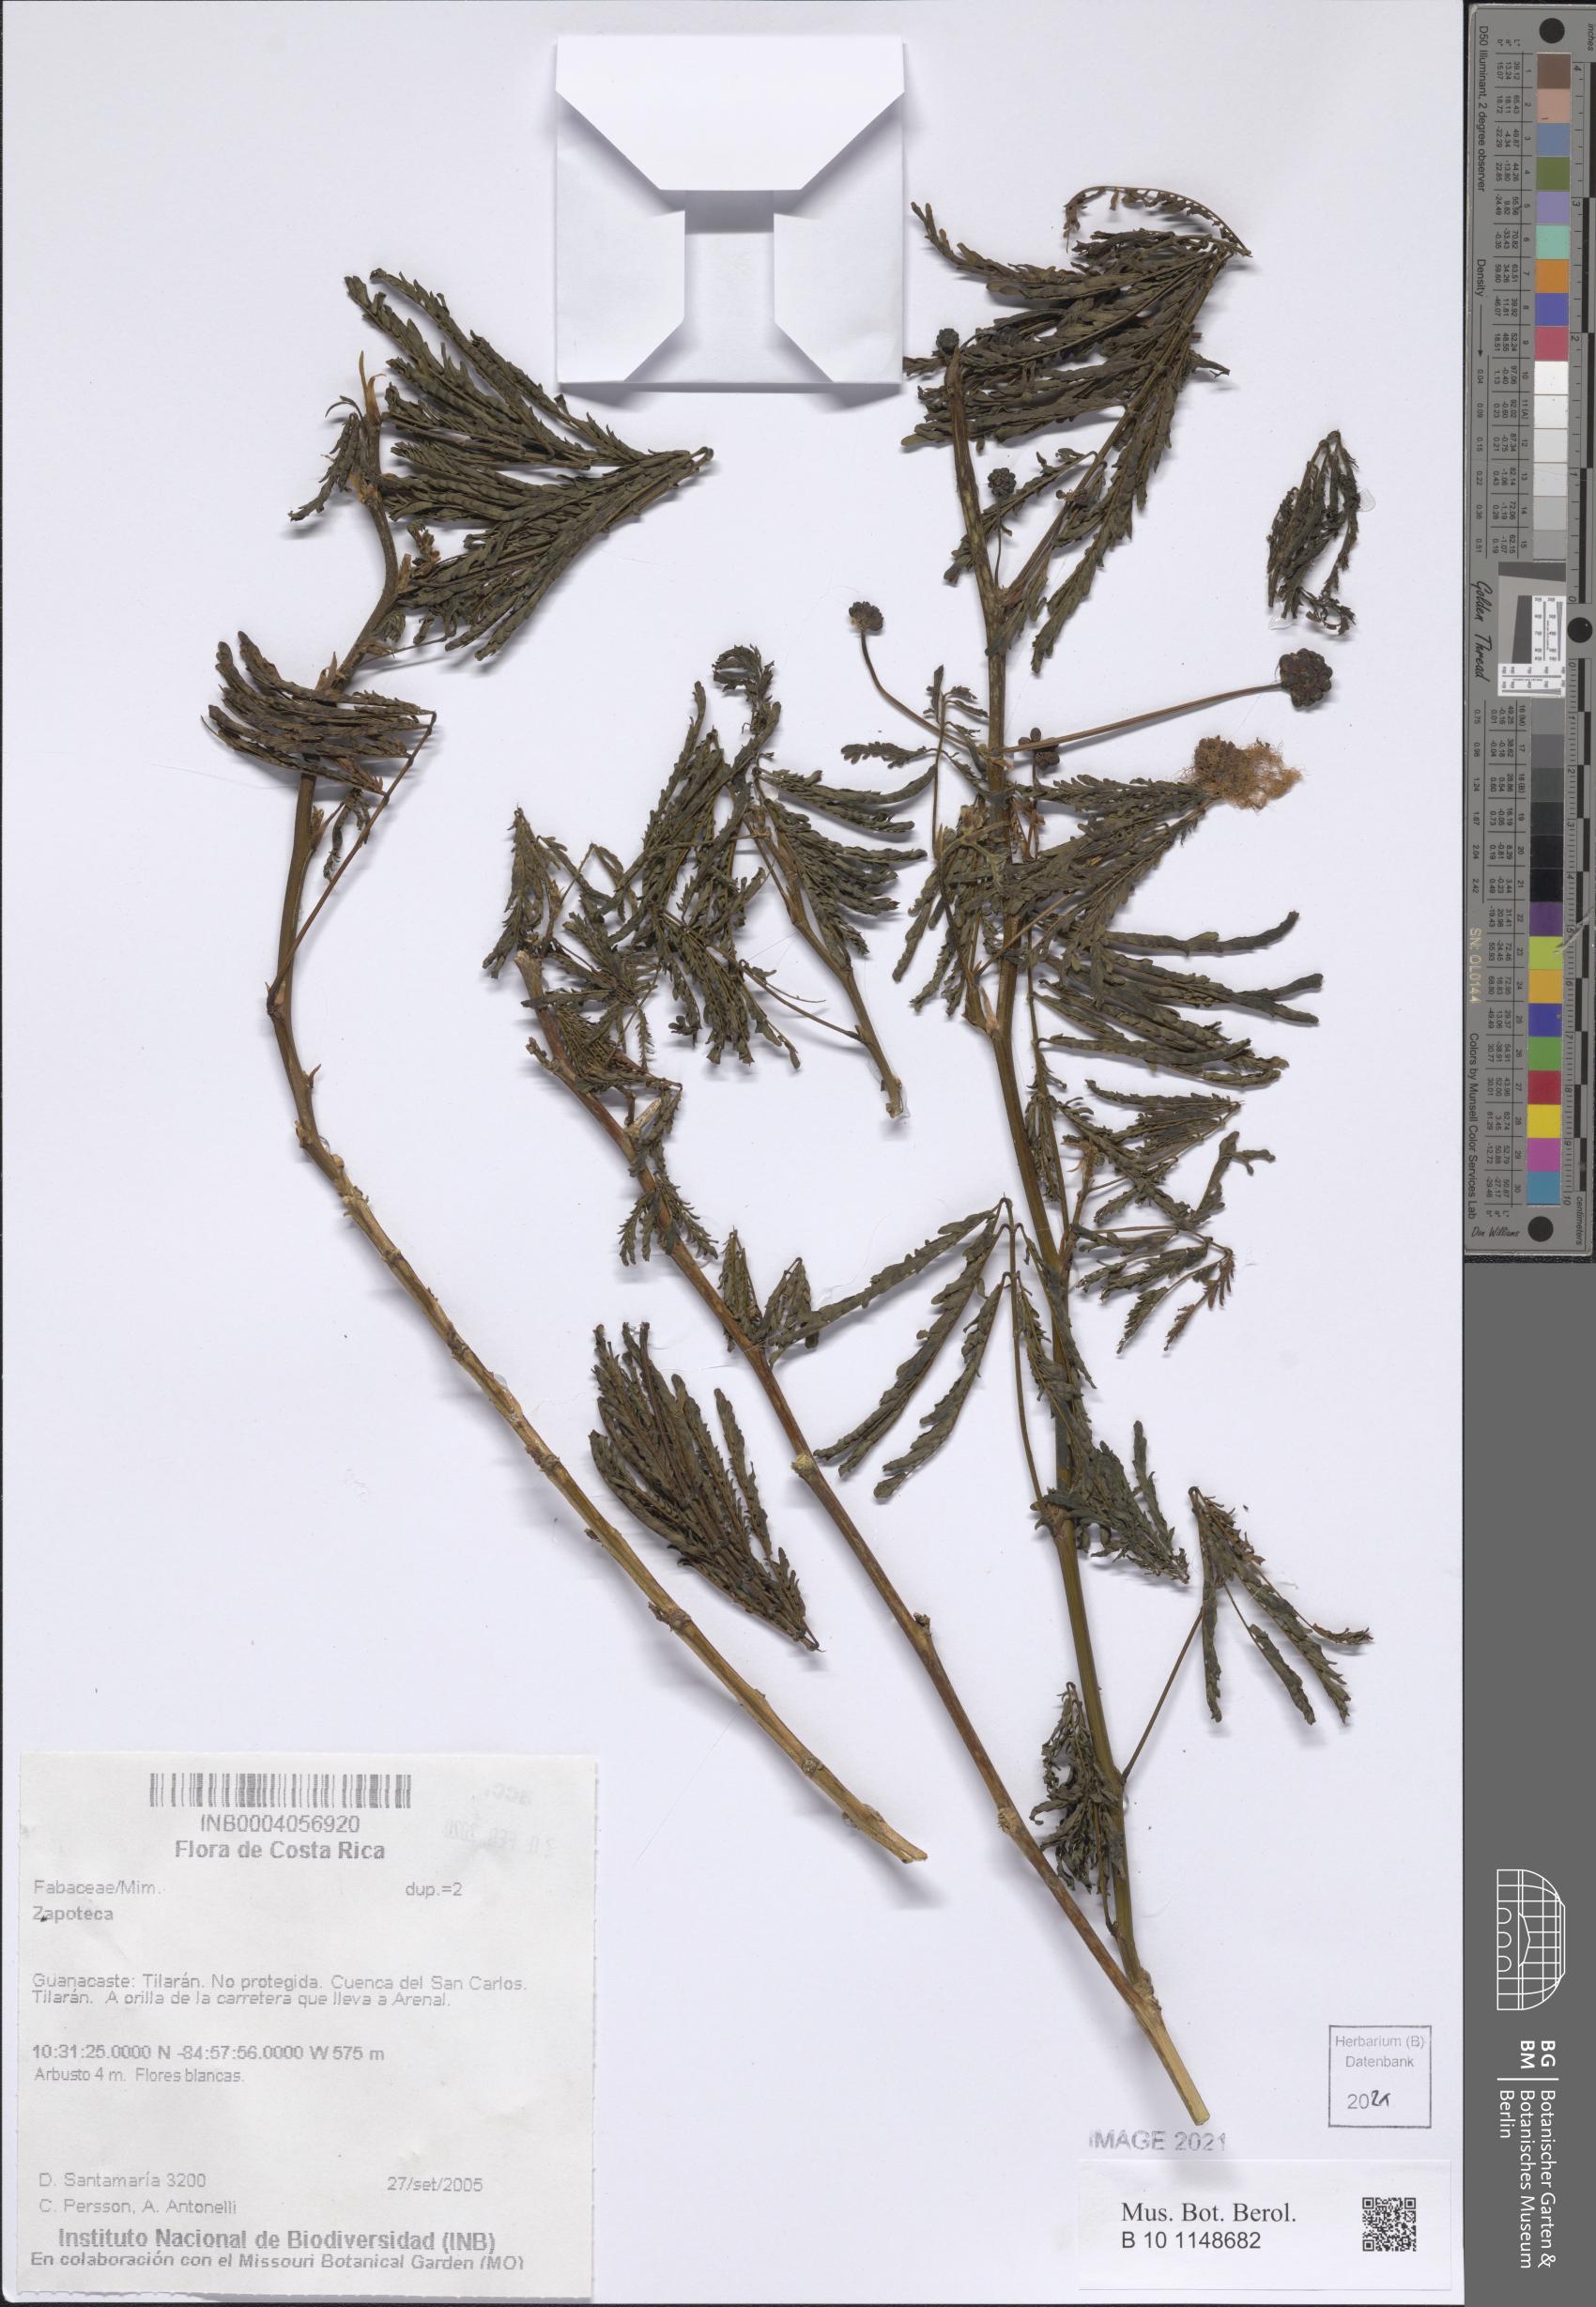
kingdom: Plantae
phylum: Tracheophyta
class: Magnoliopsida
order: Fabales
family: Fabaceae
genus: Zapoteca
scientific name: Zapoteca
